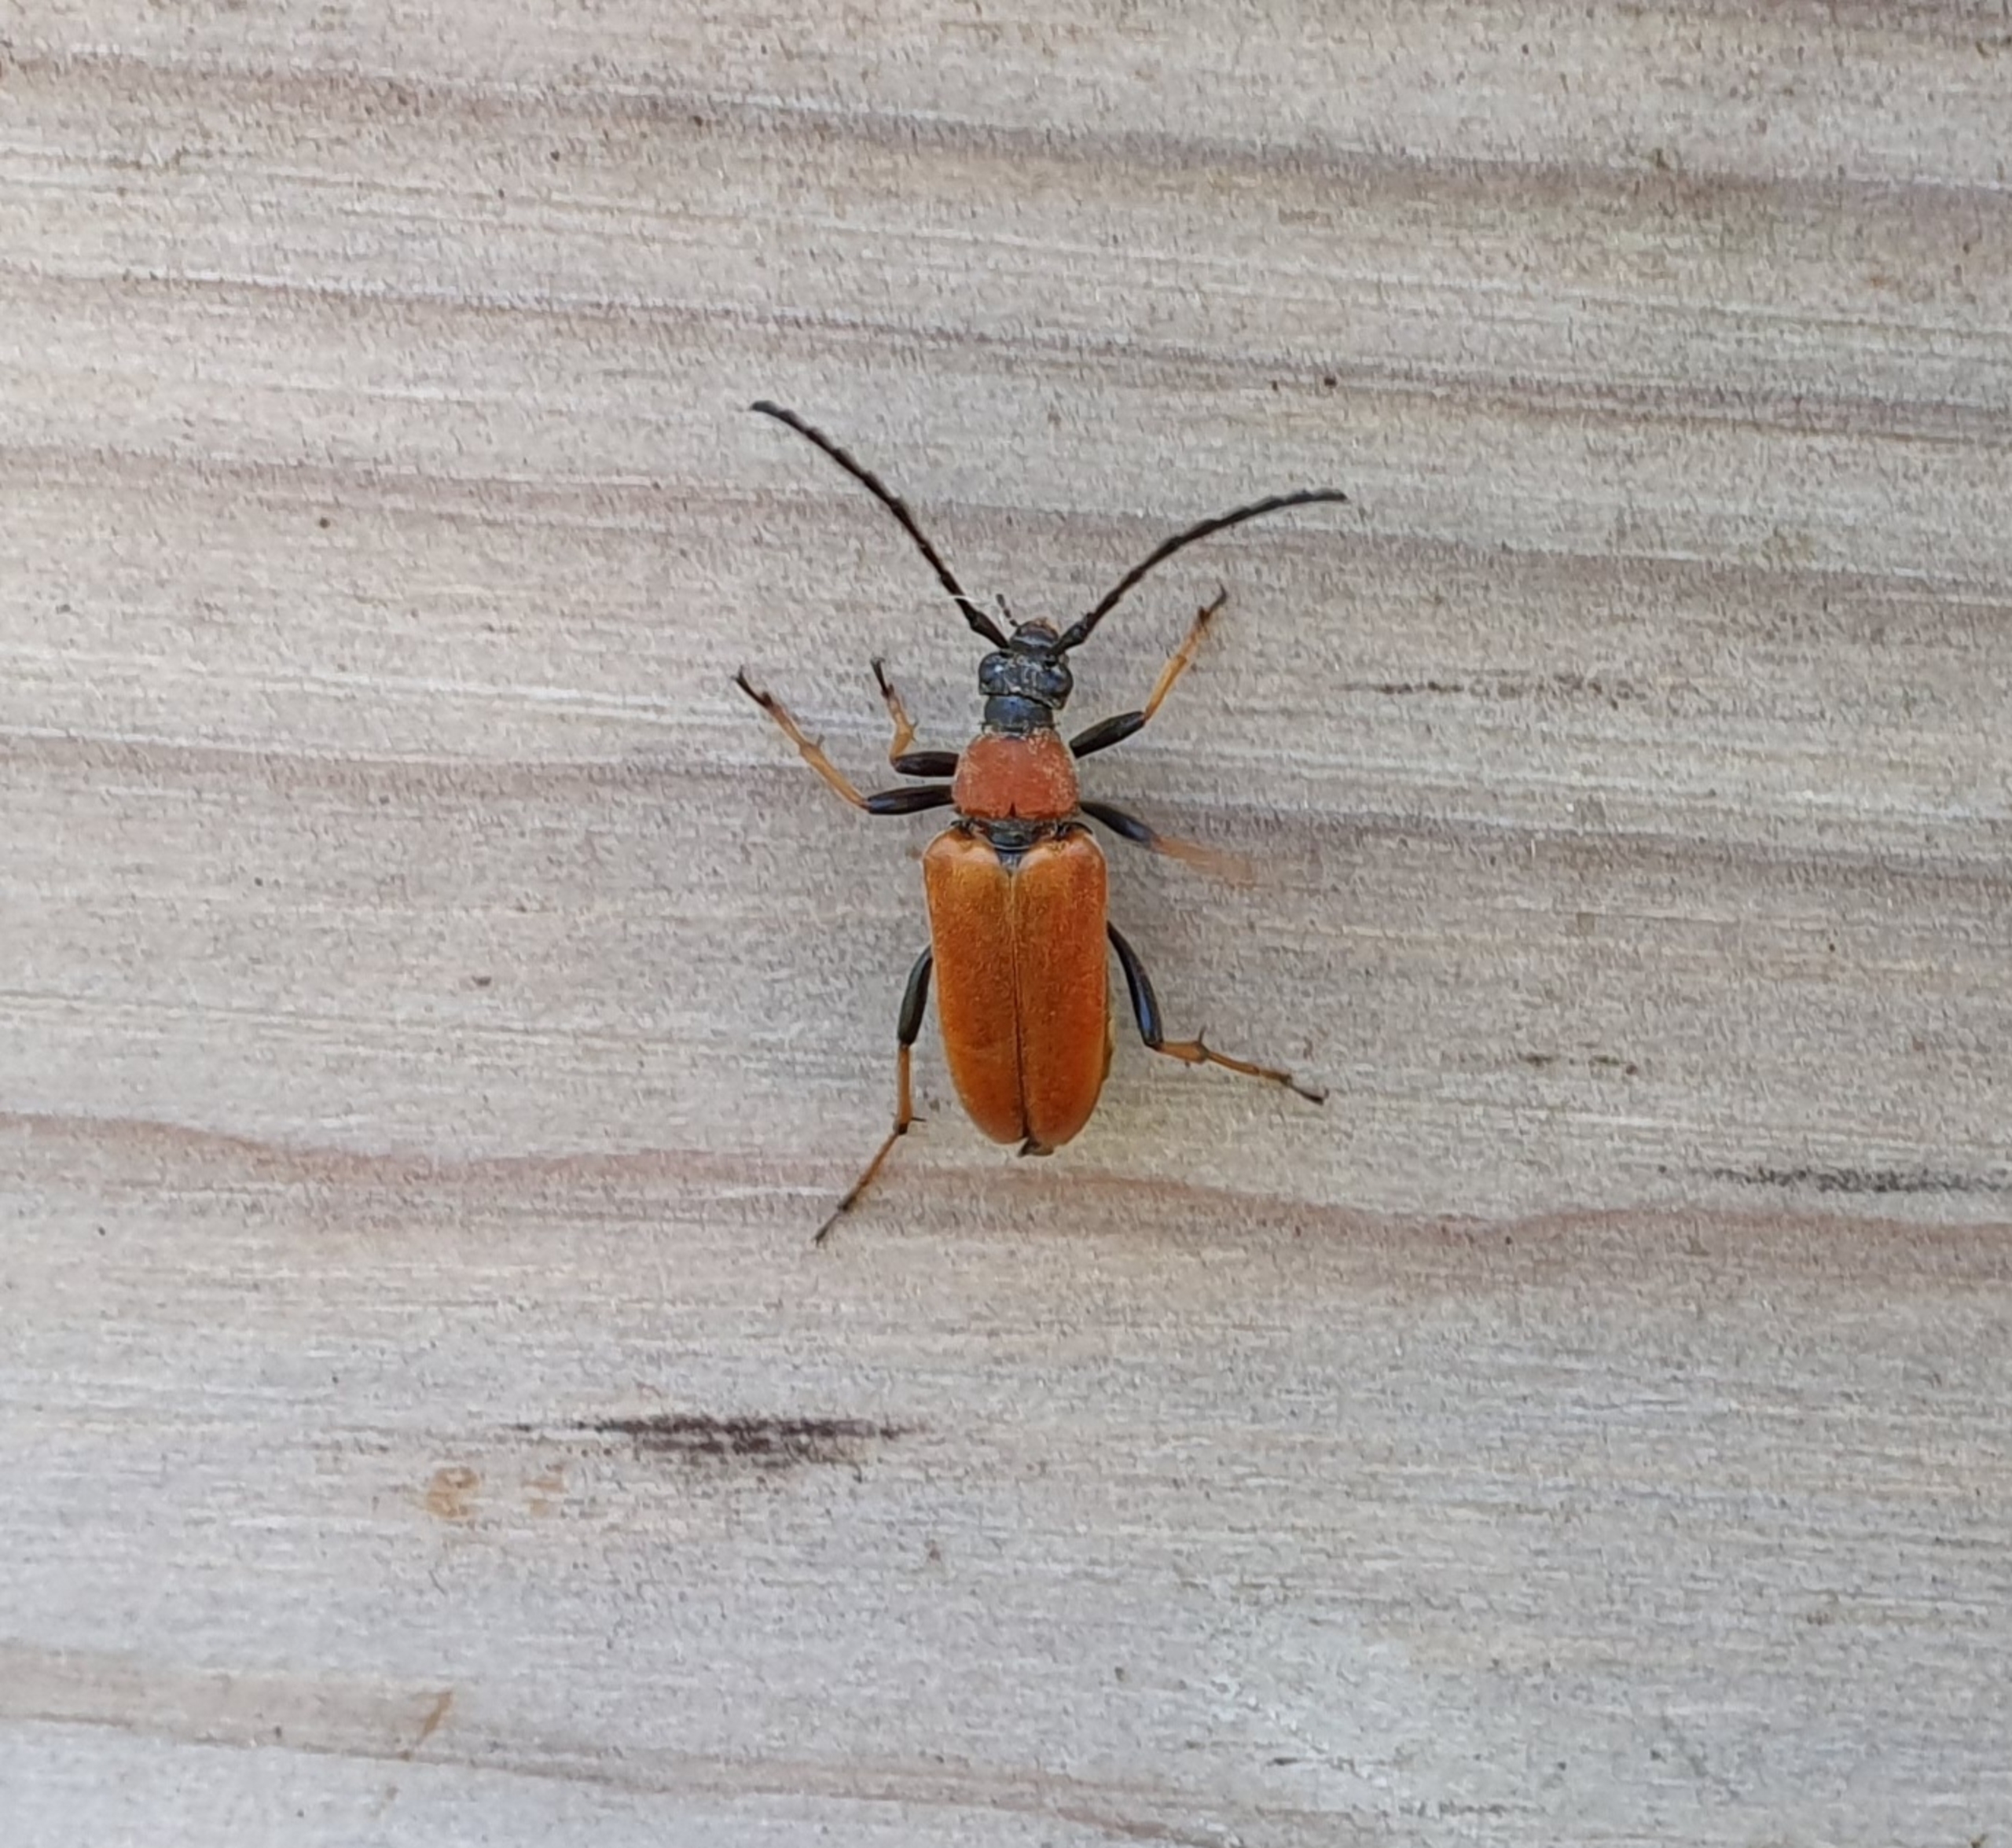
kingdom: Animalia
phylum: Arthropoda
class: Insecta
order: Coleoptera
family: Cerambycidae
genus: Stictoleptura
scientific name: Stictoleptura rubra
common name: Rød blomsterbuk
